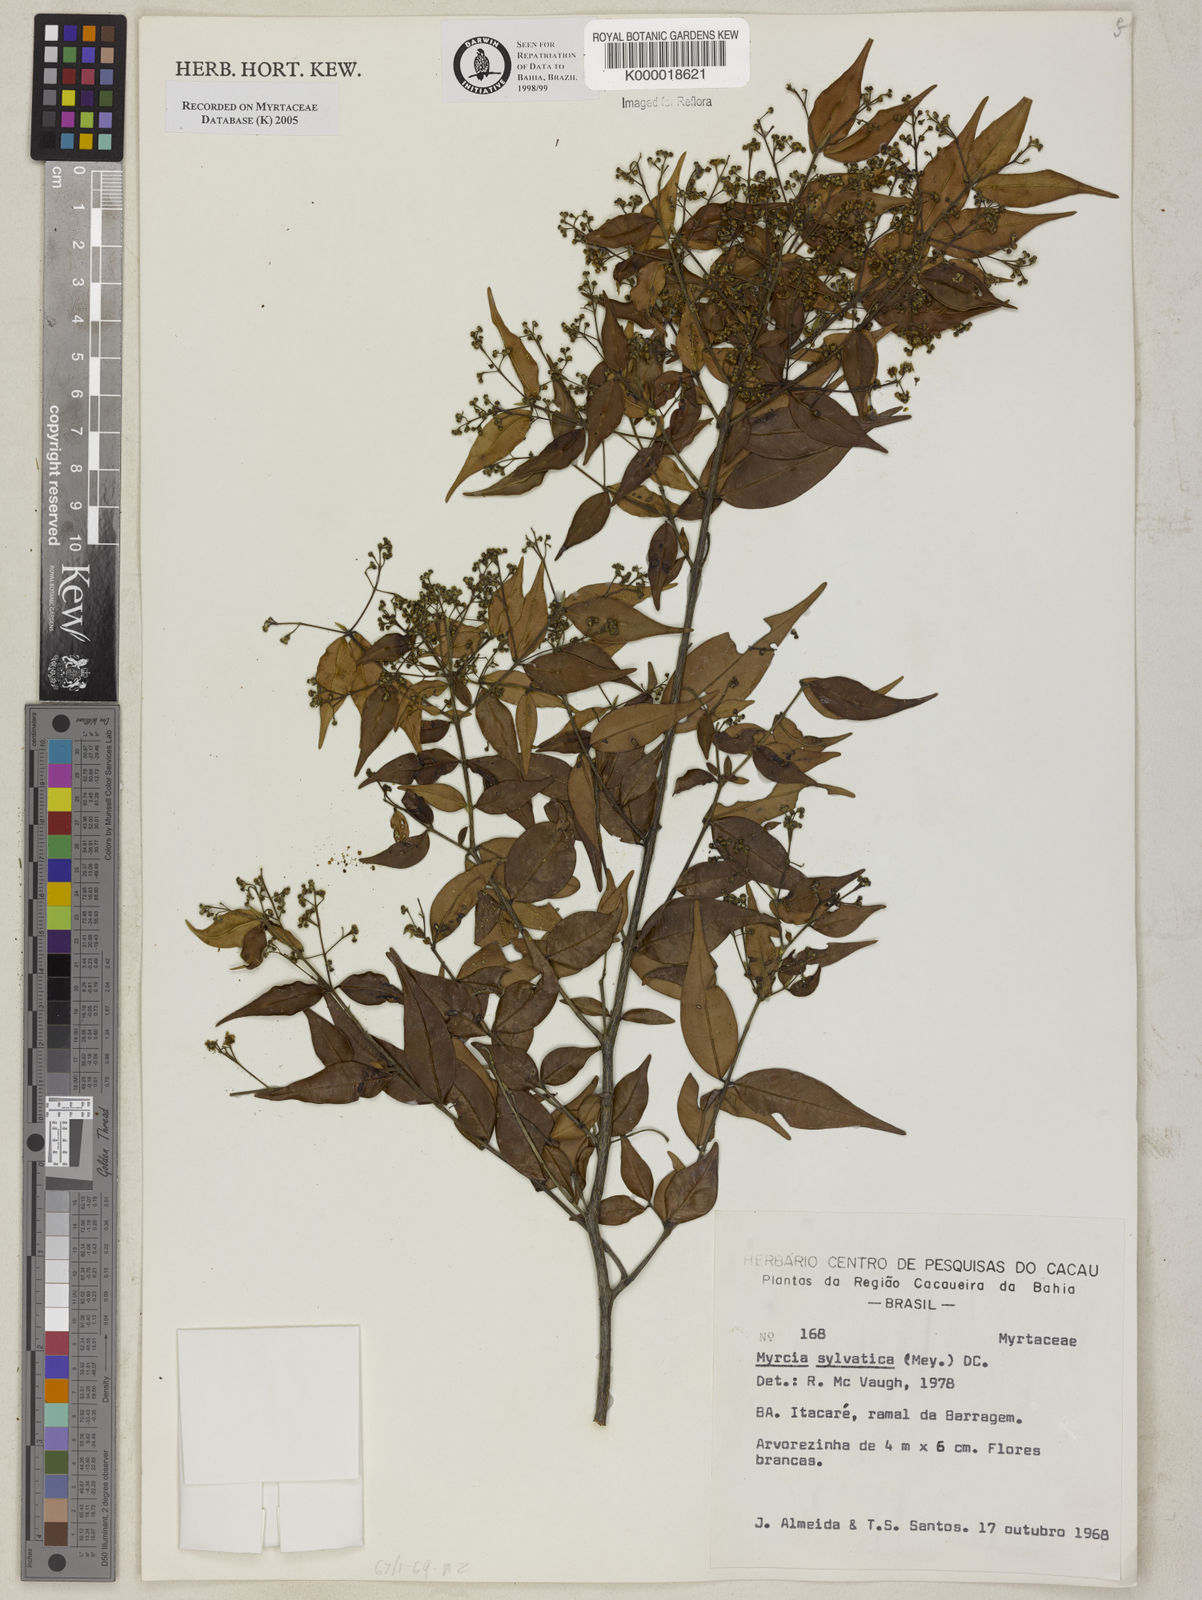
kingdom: Plantae
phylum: Tracheophyta
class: Magnoliopsida
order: Myrtales
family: Myrtaceae
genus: Myrcia
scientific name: Myrcia sylvatica
